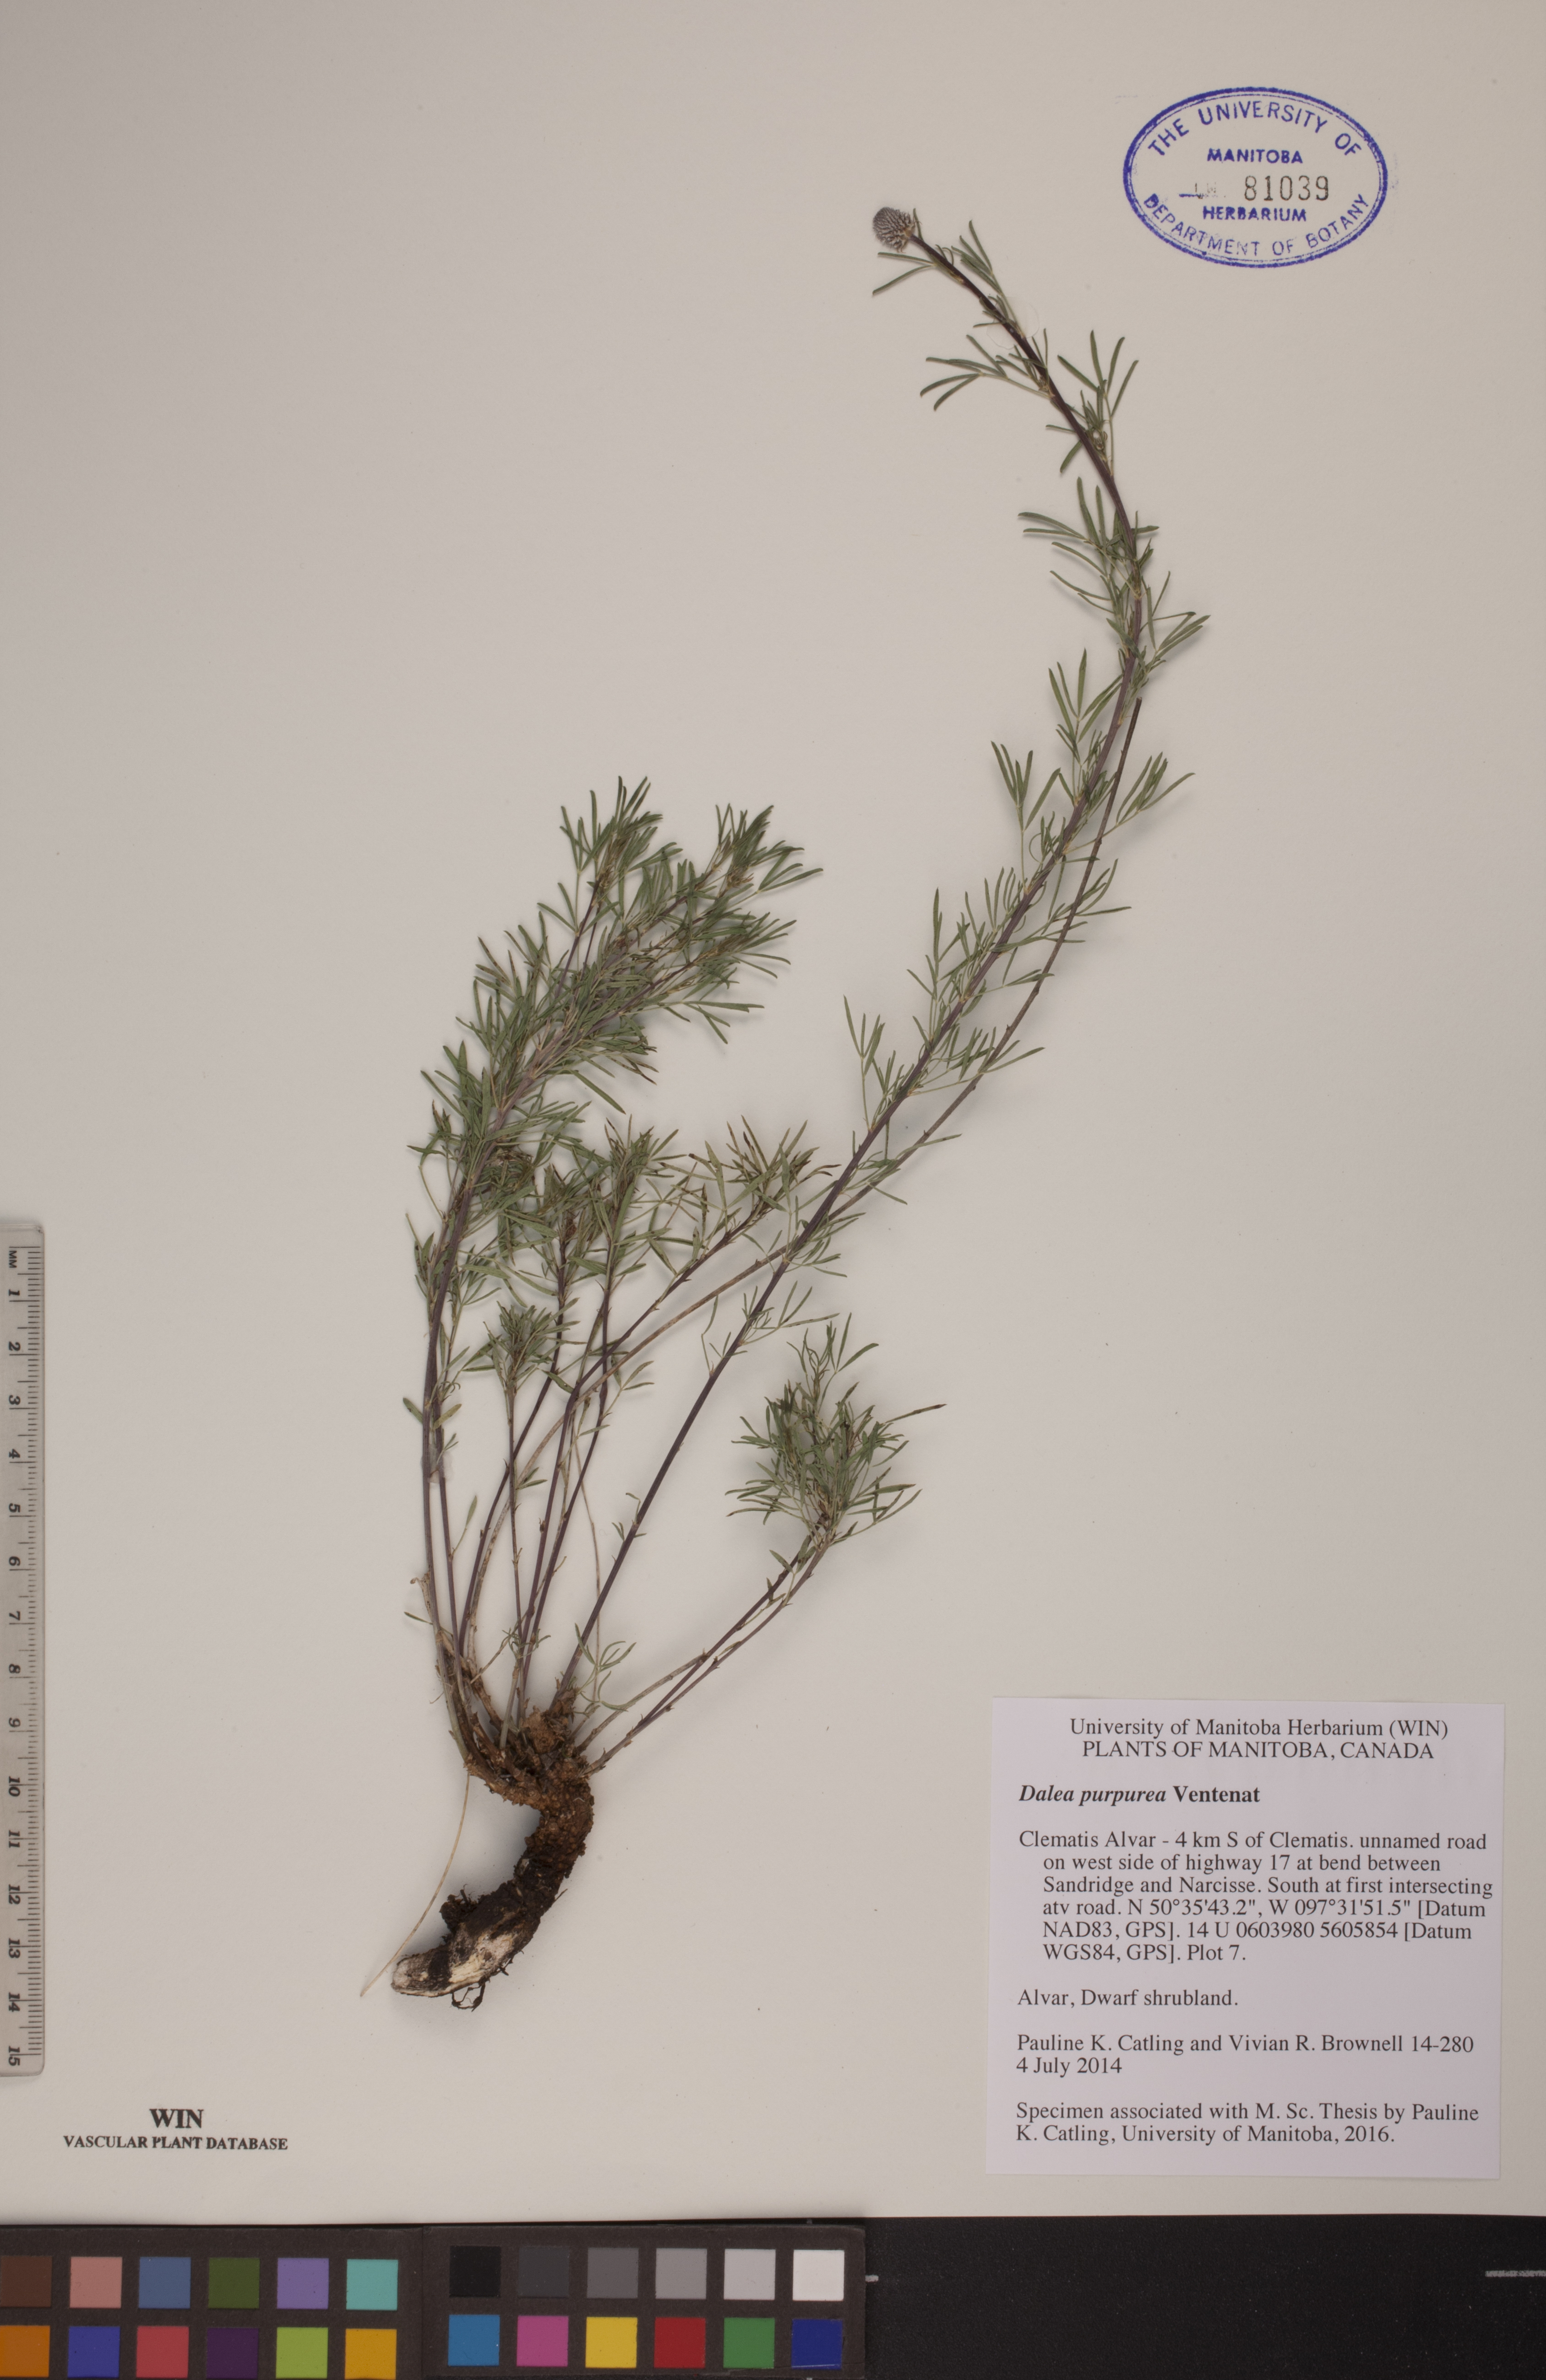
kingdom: Plantae
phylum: Tracheophyta
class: Magnoliopsida
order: Fabales
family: Fabaceae
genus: Dalea
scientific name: Dalea purpurea
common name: Purple prairie-clover
